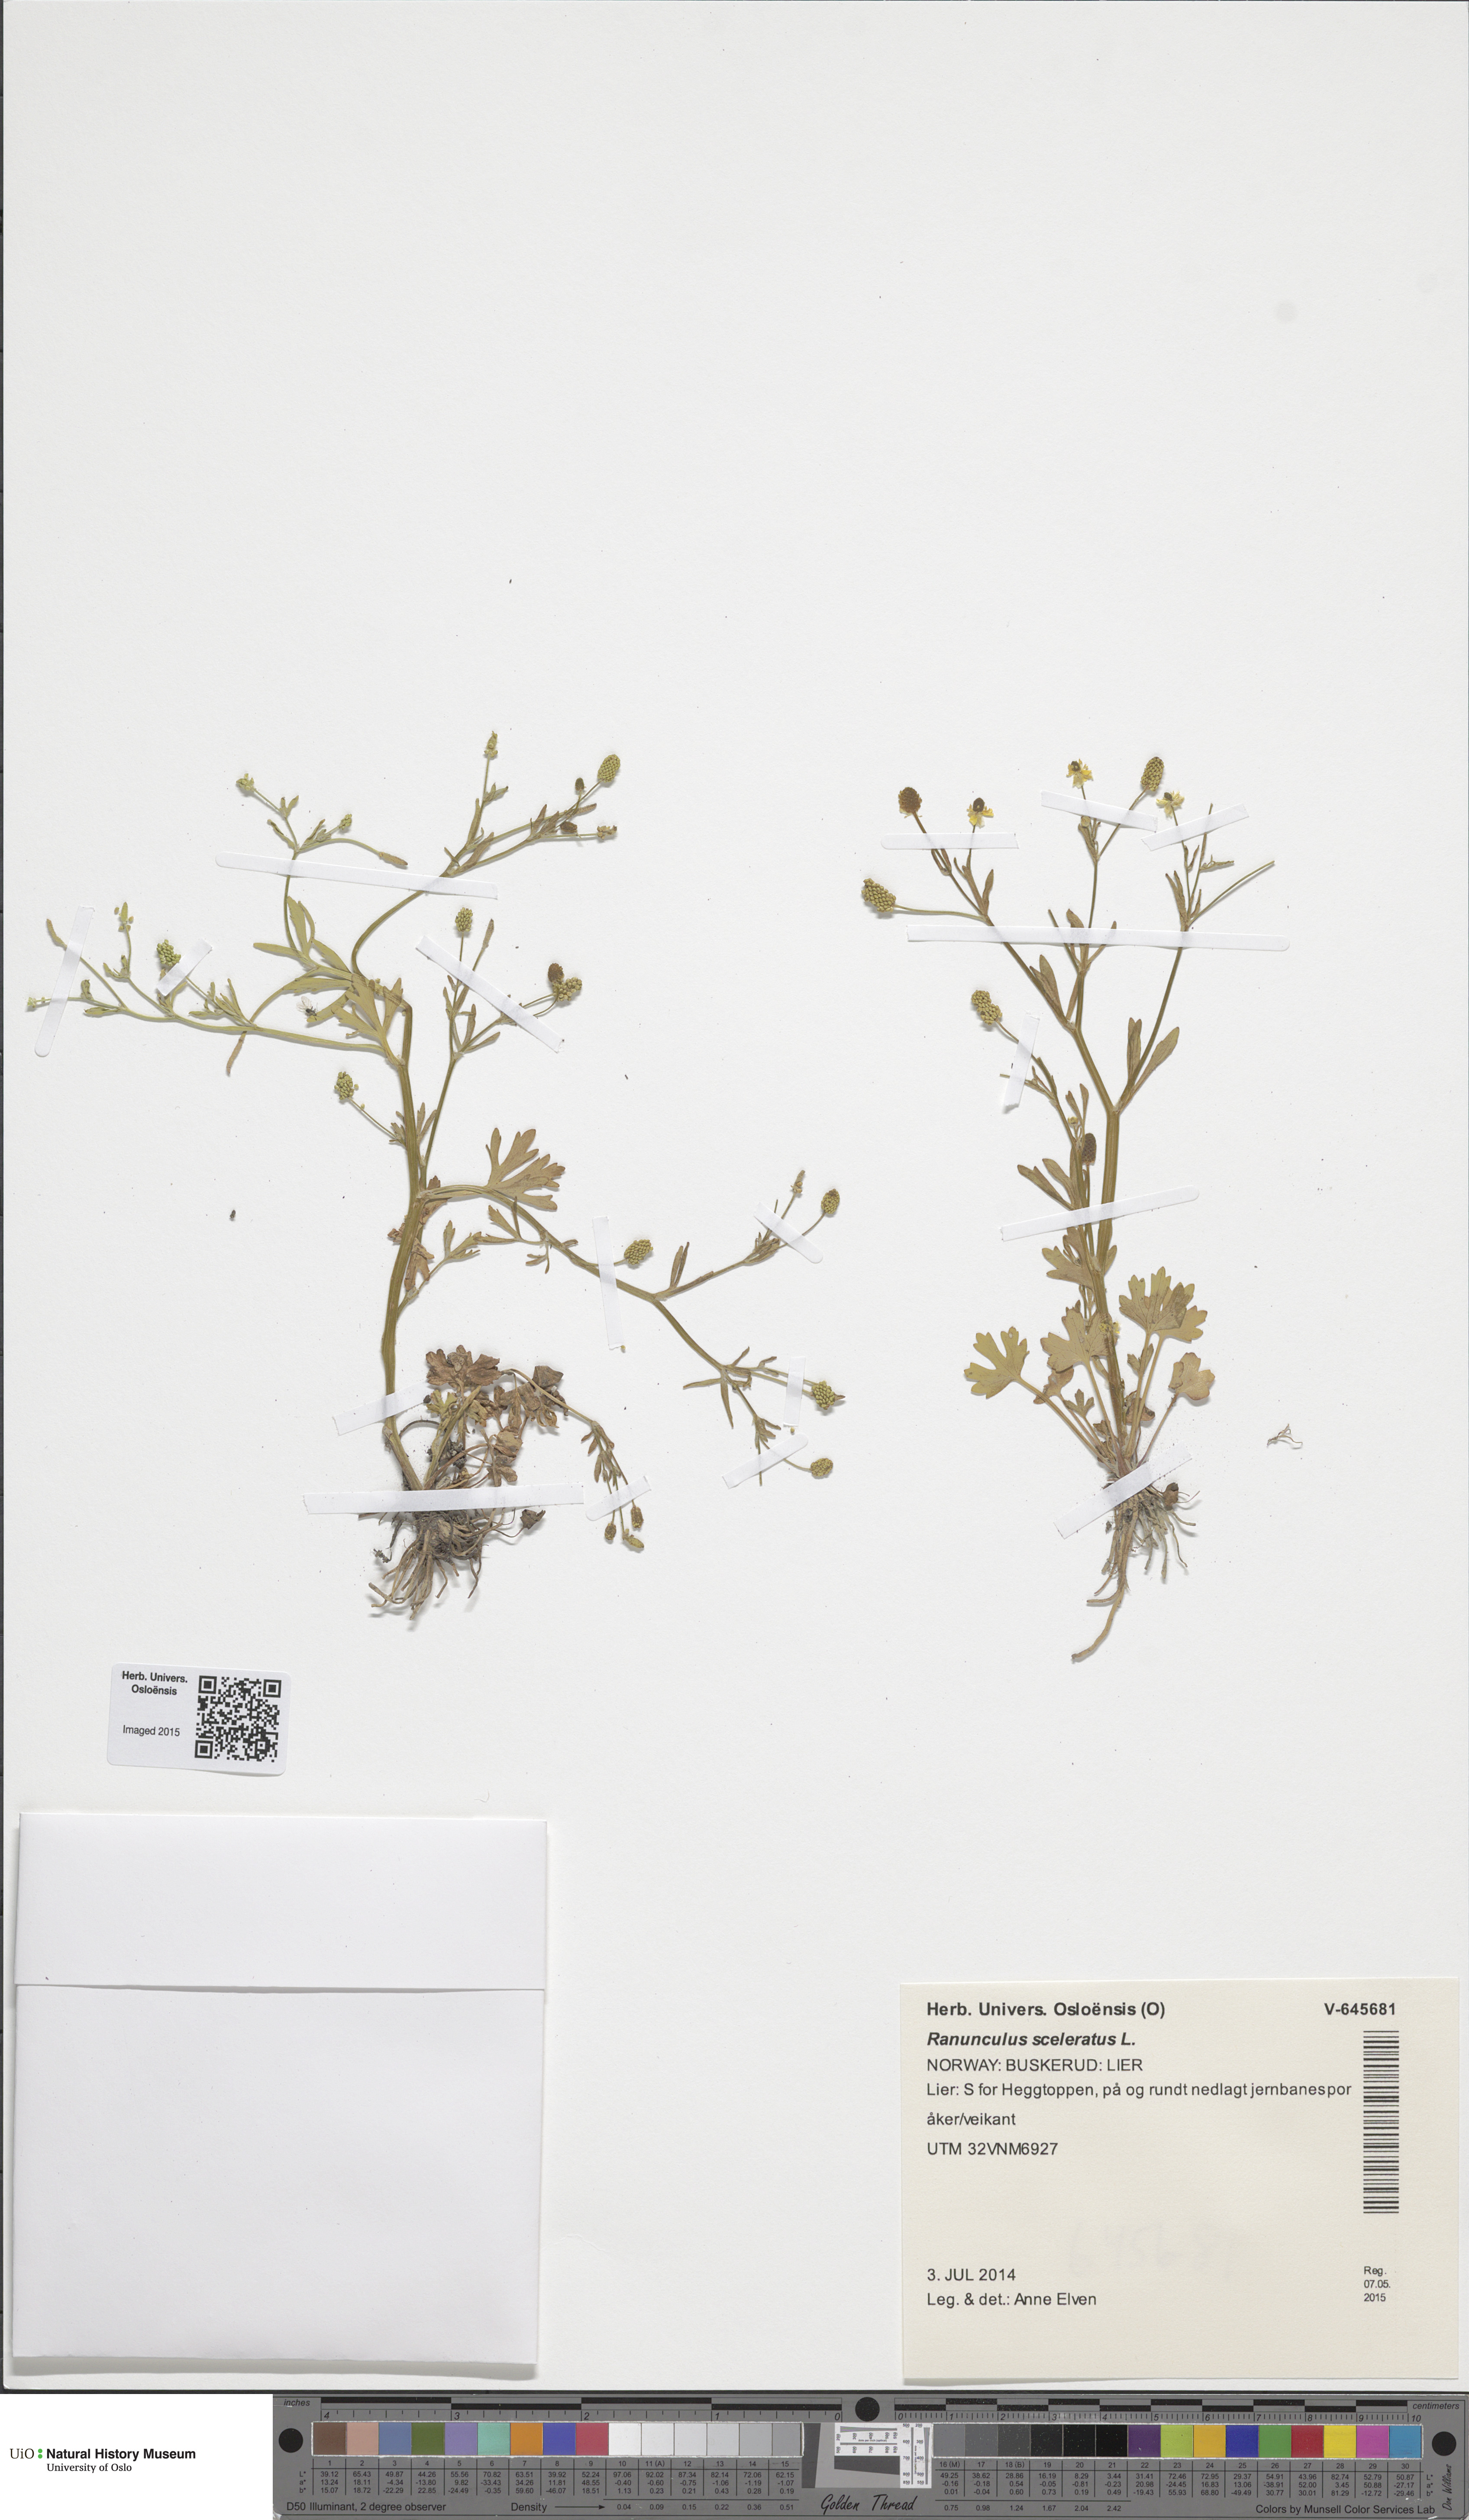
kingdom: Plantae
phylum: Tracheophyta
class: Magnoliopsida
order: Ranunculales
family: Ranunculaceae
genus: Ranunculus
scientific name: Ranunculus sceleratus
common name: Celery-leaved buttercup
